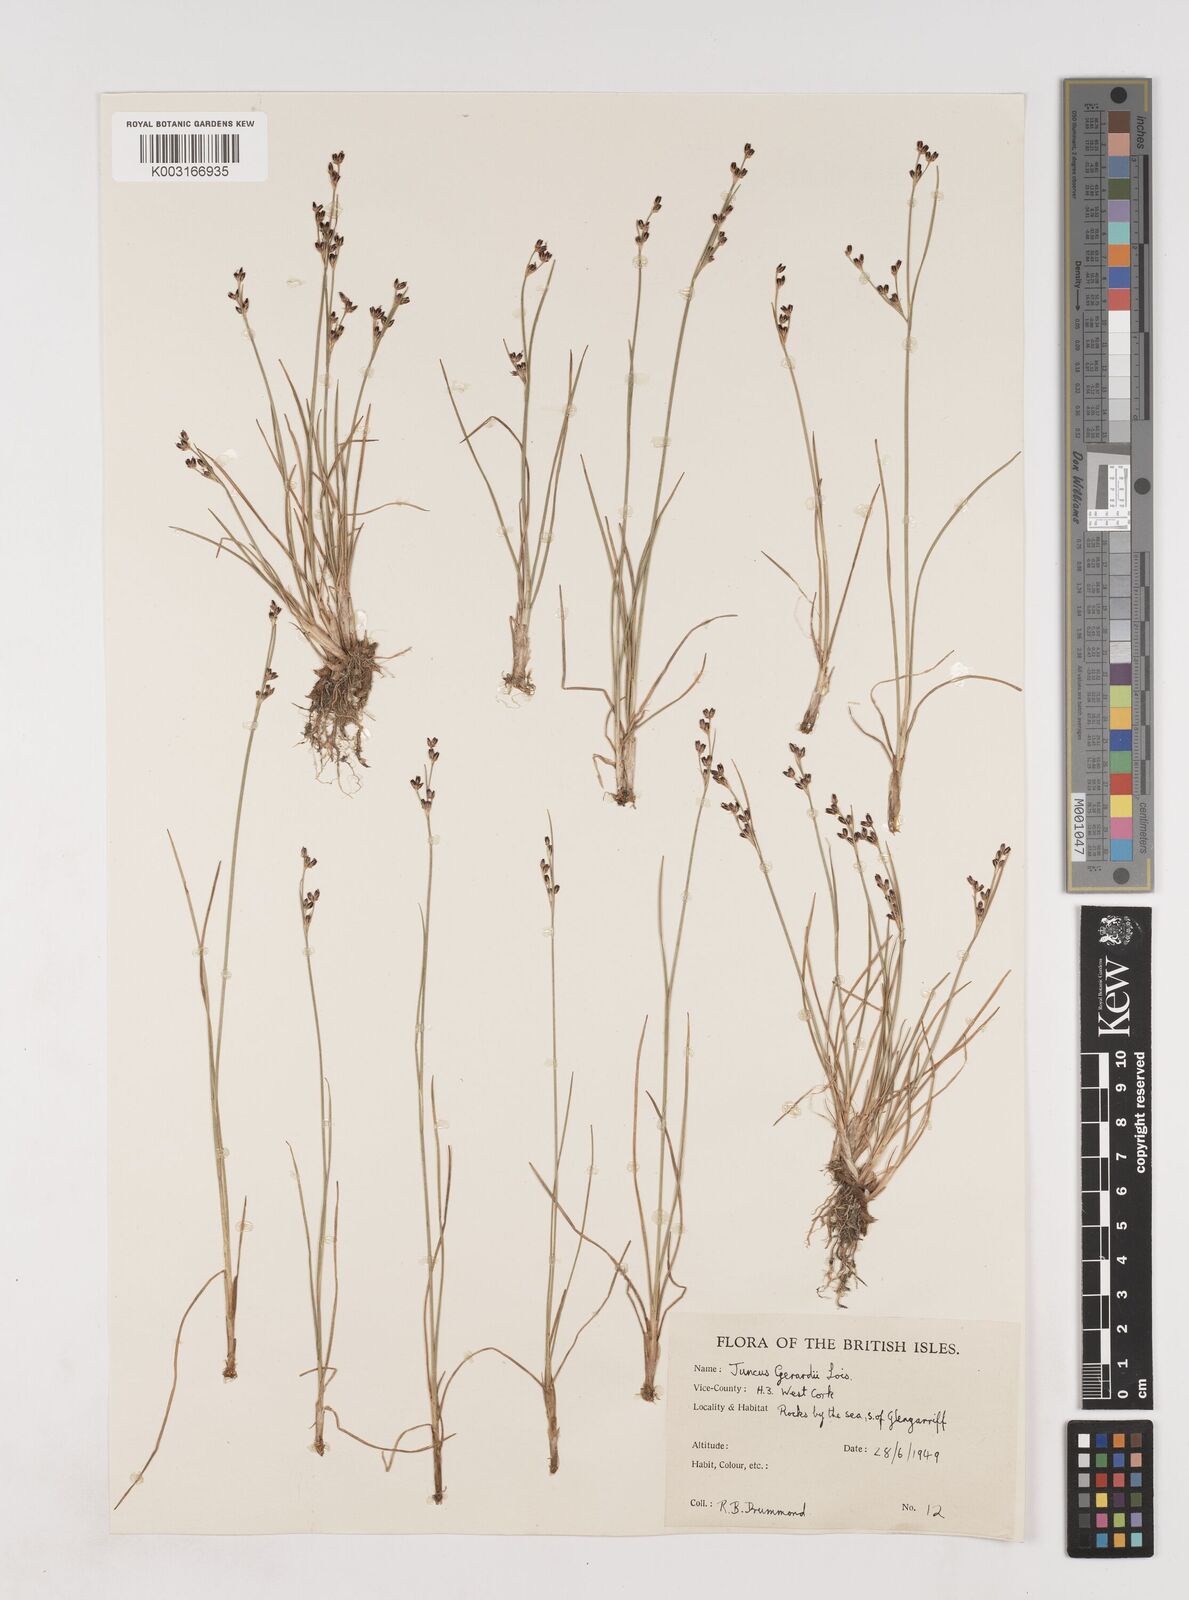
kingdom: Plantae
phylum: Tracheophyta
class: Liliopsida
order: Poales
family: Juncaceae
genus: Juncus
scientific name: Juncus gerardi
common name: Saltmarsh rush
